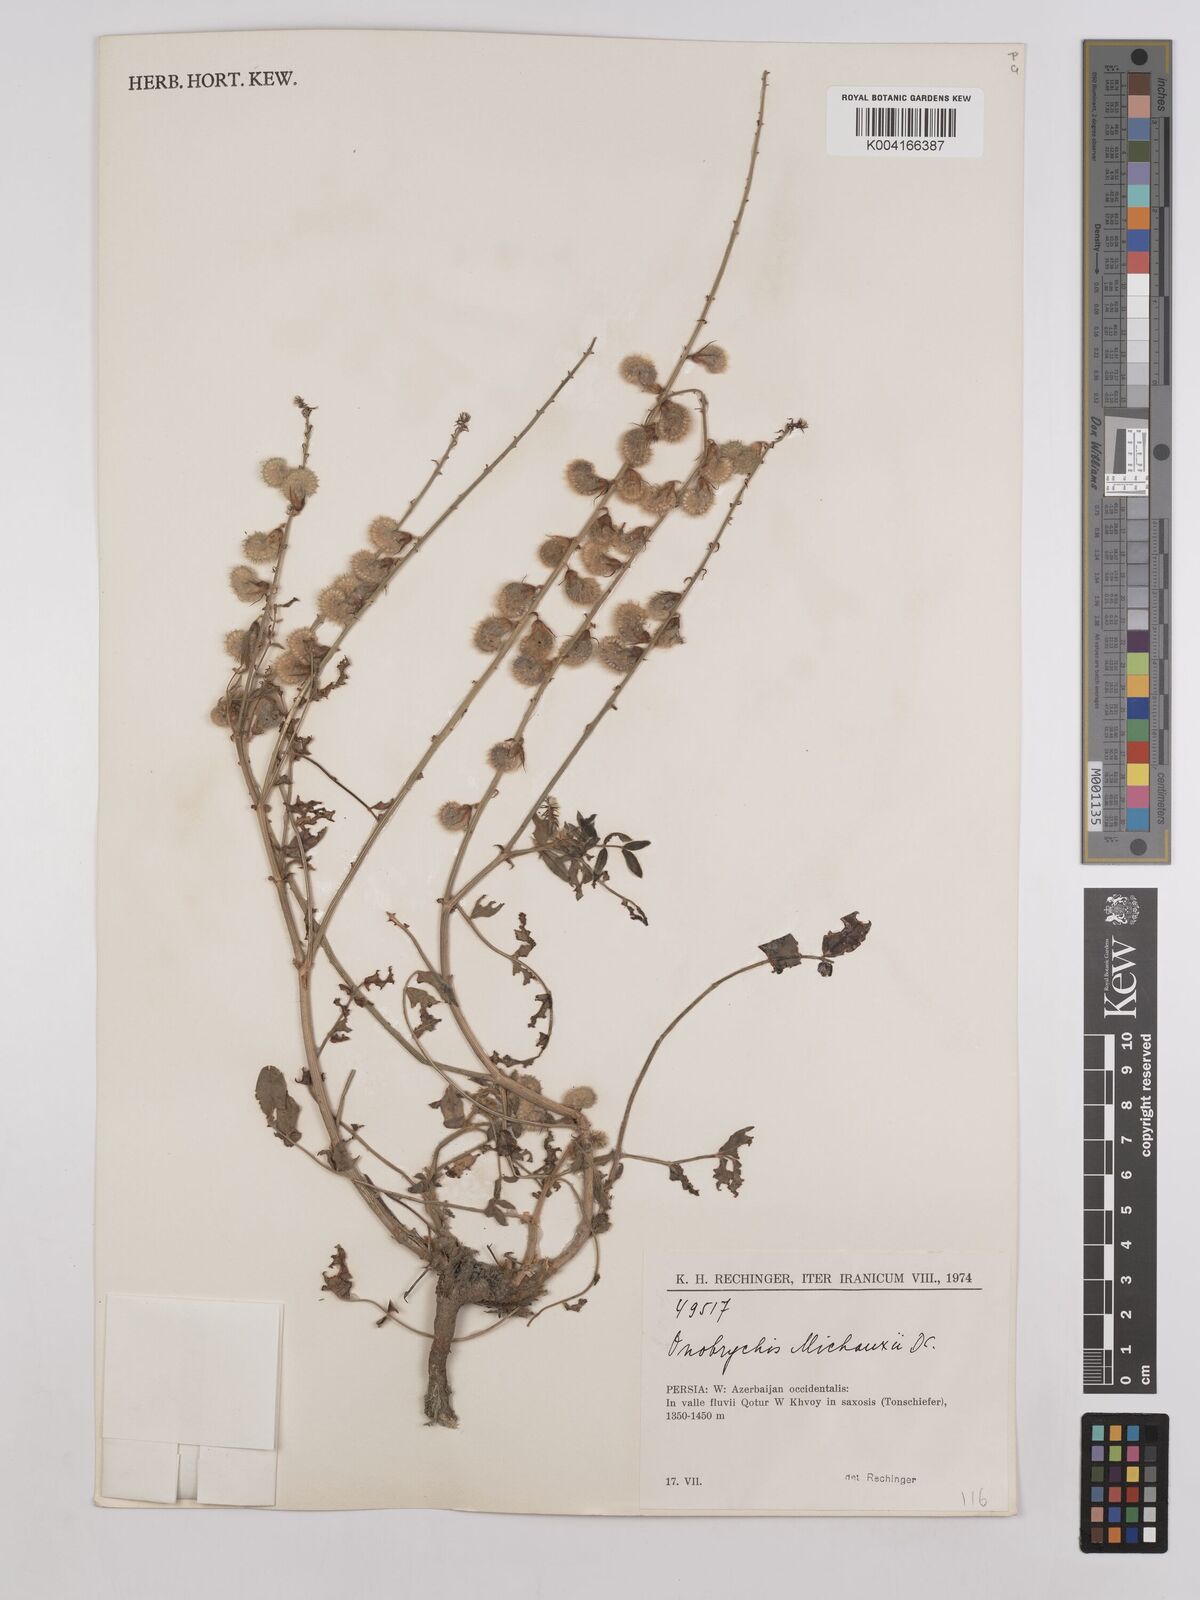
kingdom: Plantae
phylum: Tracheophyta
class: Magnoliopsida
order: Fabales
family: Fabaceae
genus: Onobrychis
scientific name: Onobrychis michauxii
